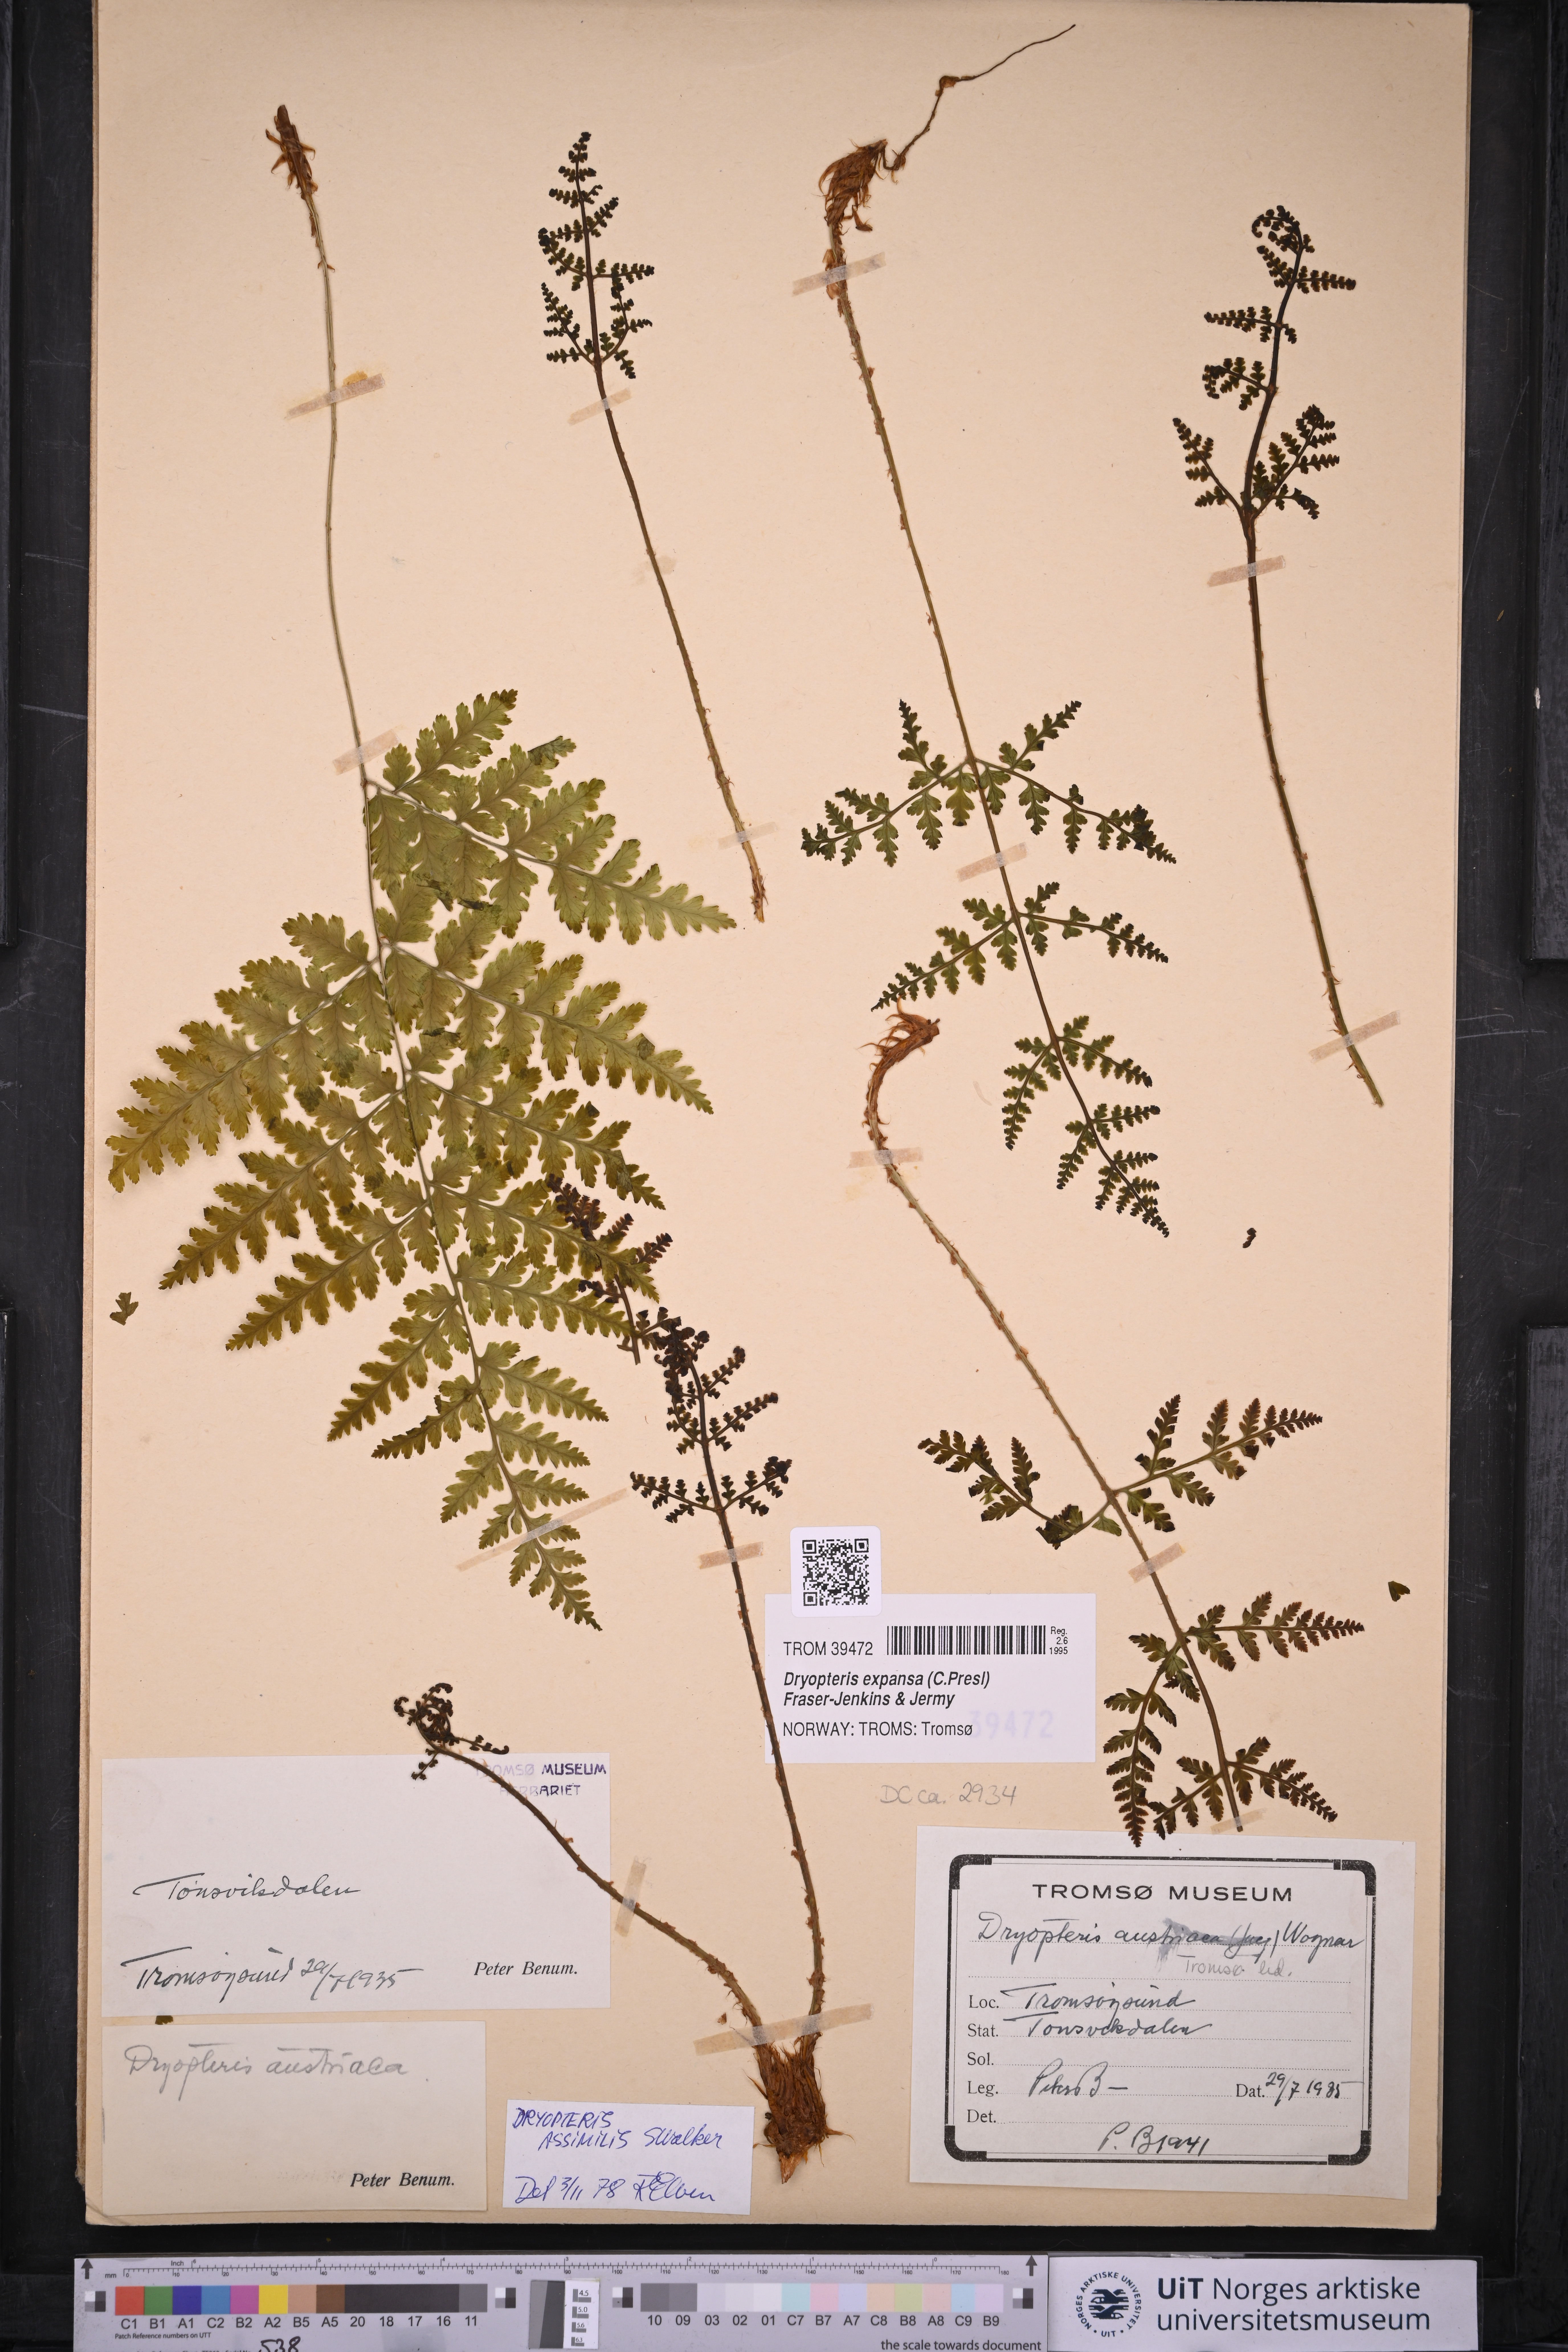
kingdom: Plantae
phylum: Tracheophyta
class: Polypodiopsida
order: Polypodiales
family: Dryopteridaceae
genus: Dryopteris
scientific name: Dryopteris expansa
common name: Northern buckler fern
